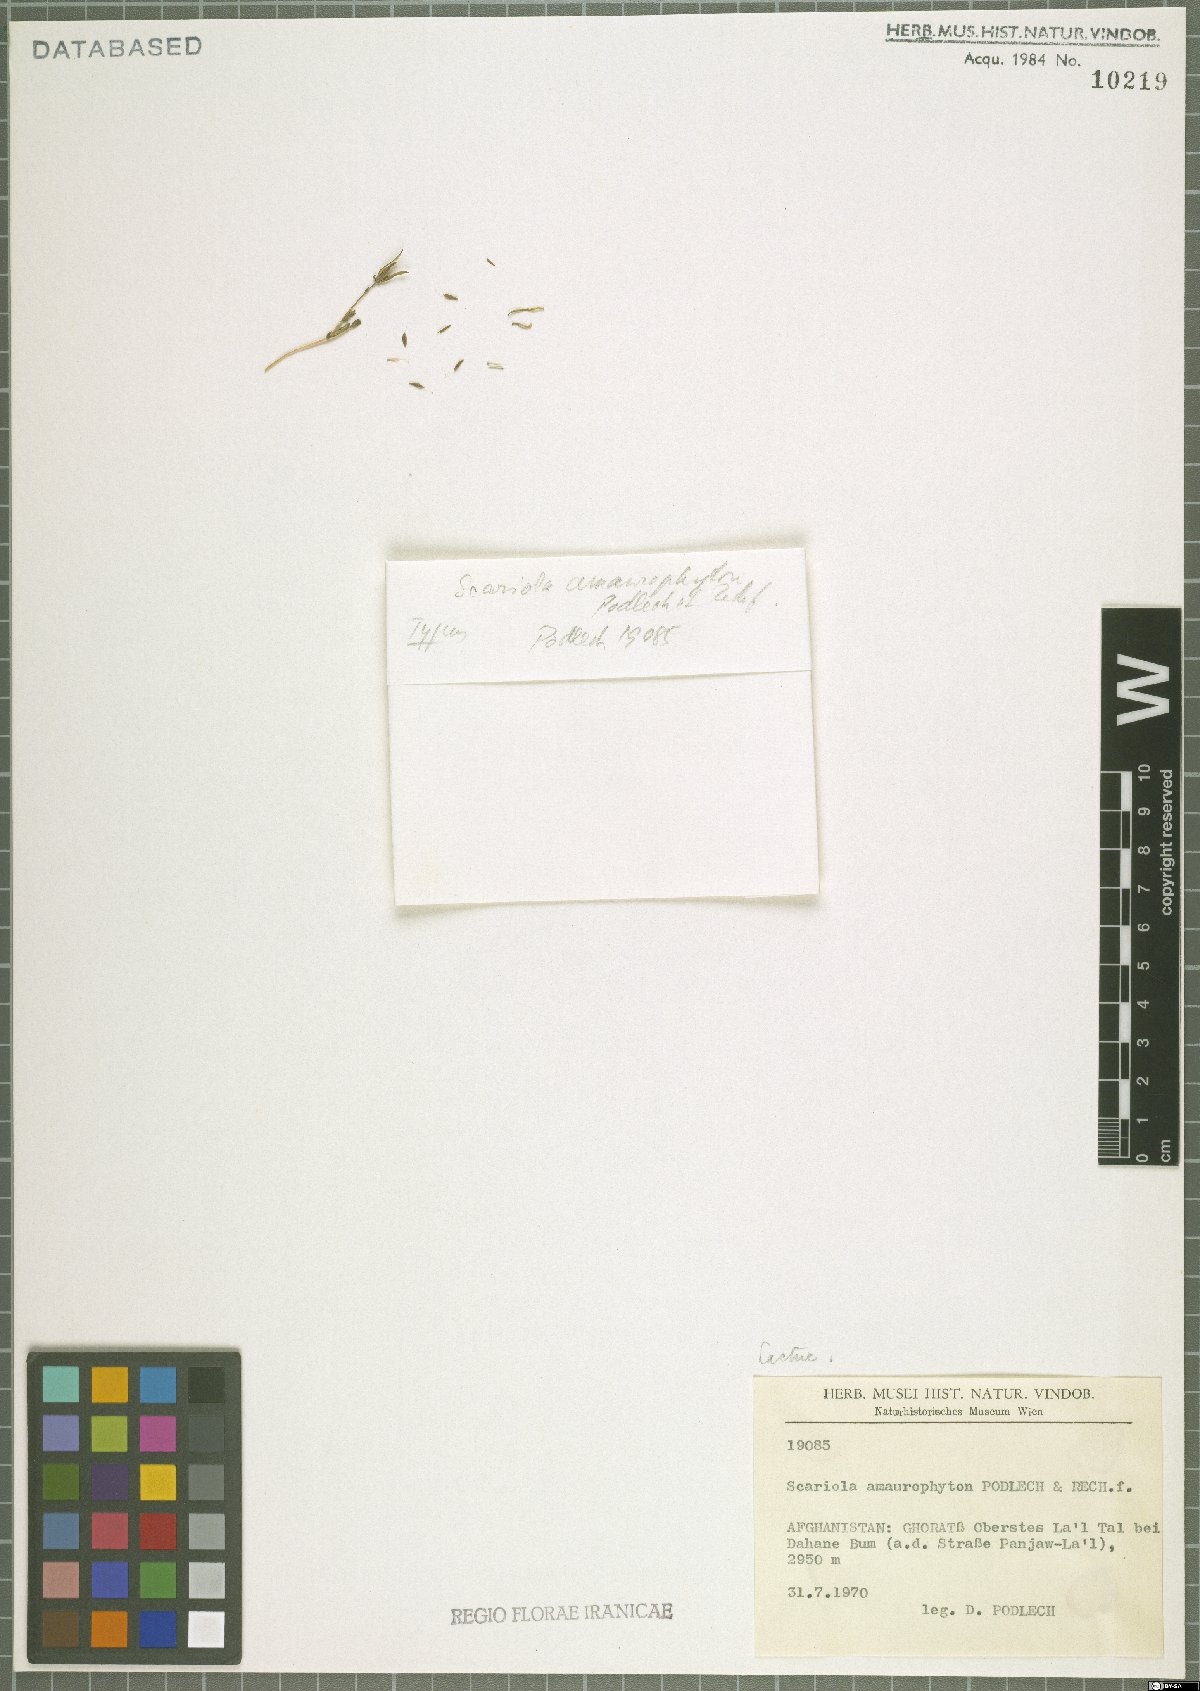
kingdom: Plantae
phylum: Tracheophyta
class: Magnoliopsida
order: Asterales
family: Asteraceae
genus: Lactuca
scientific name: Lactuca amaurophyton
